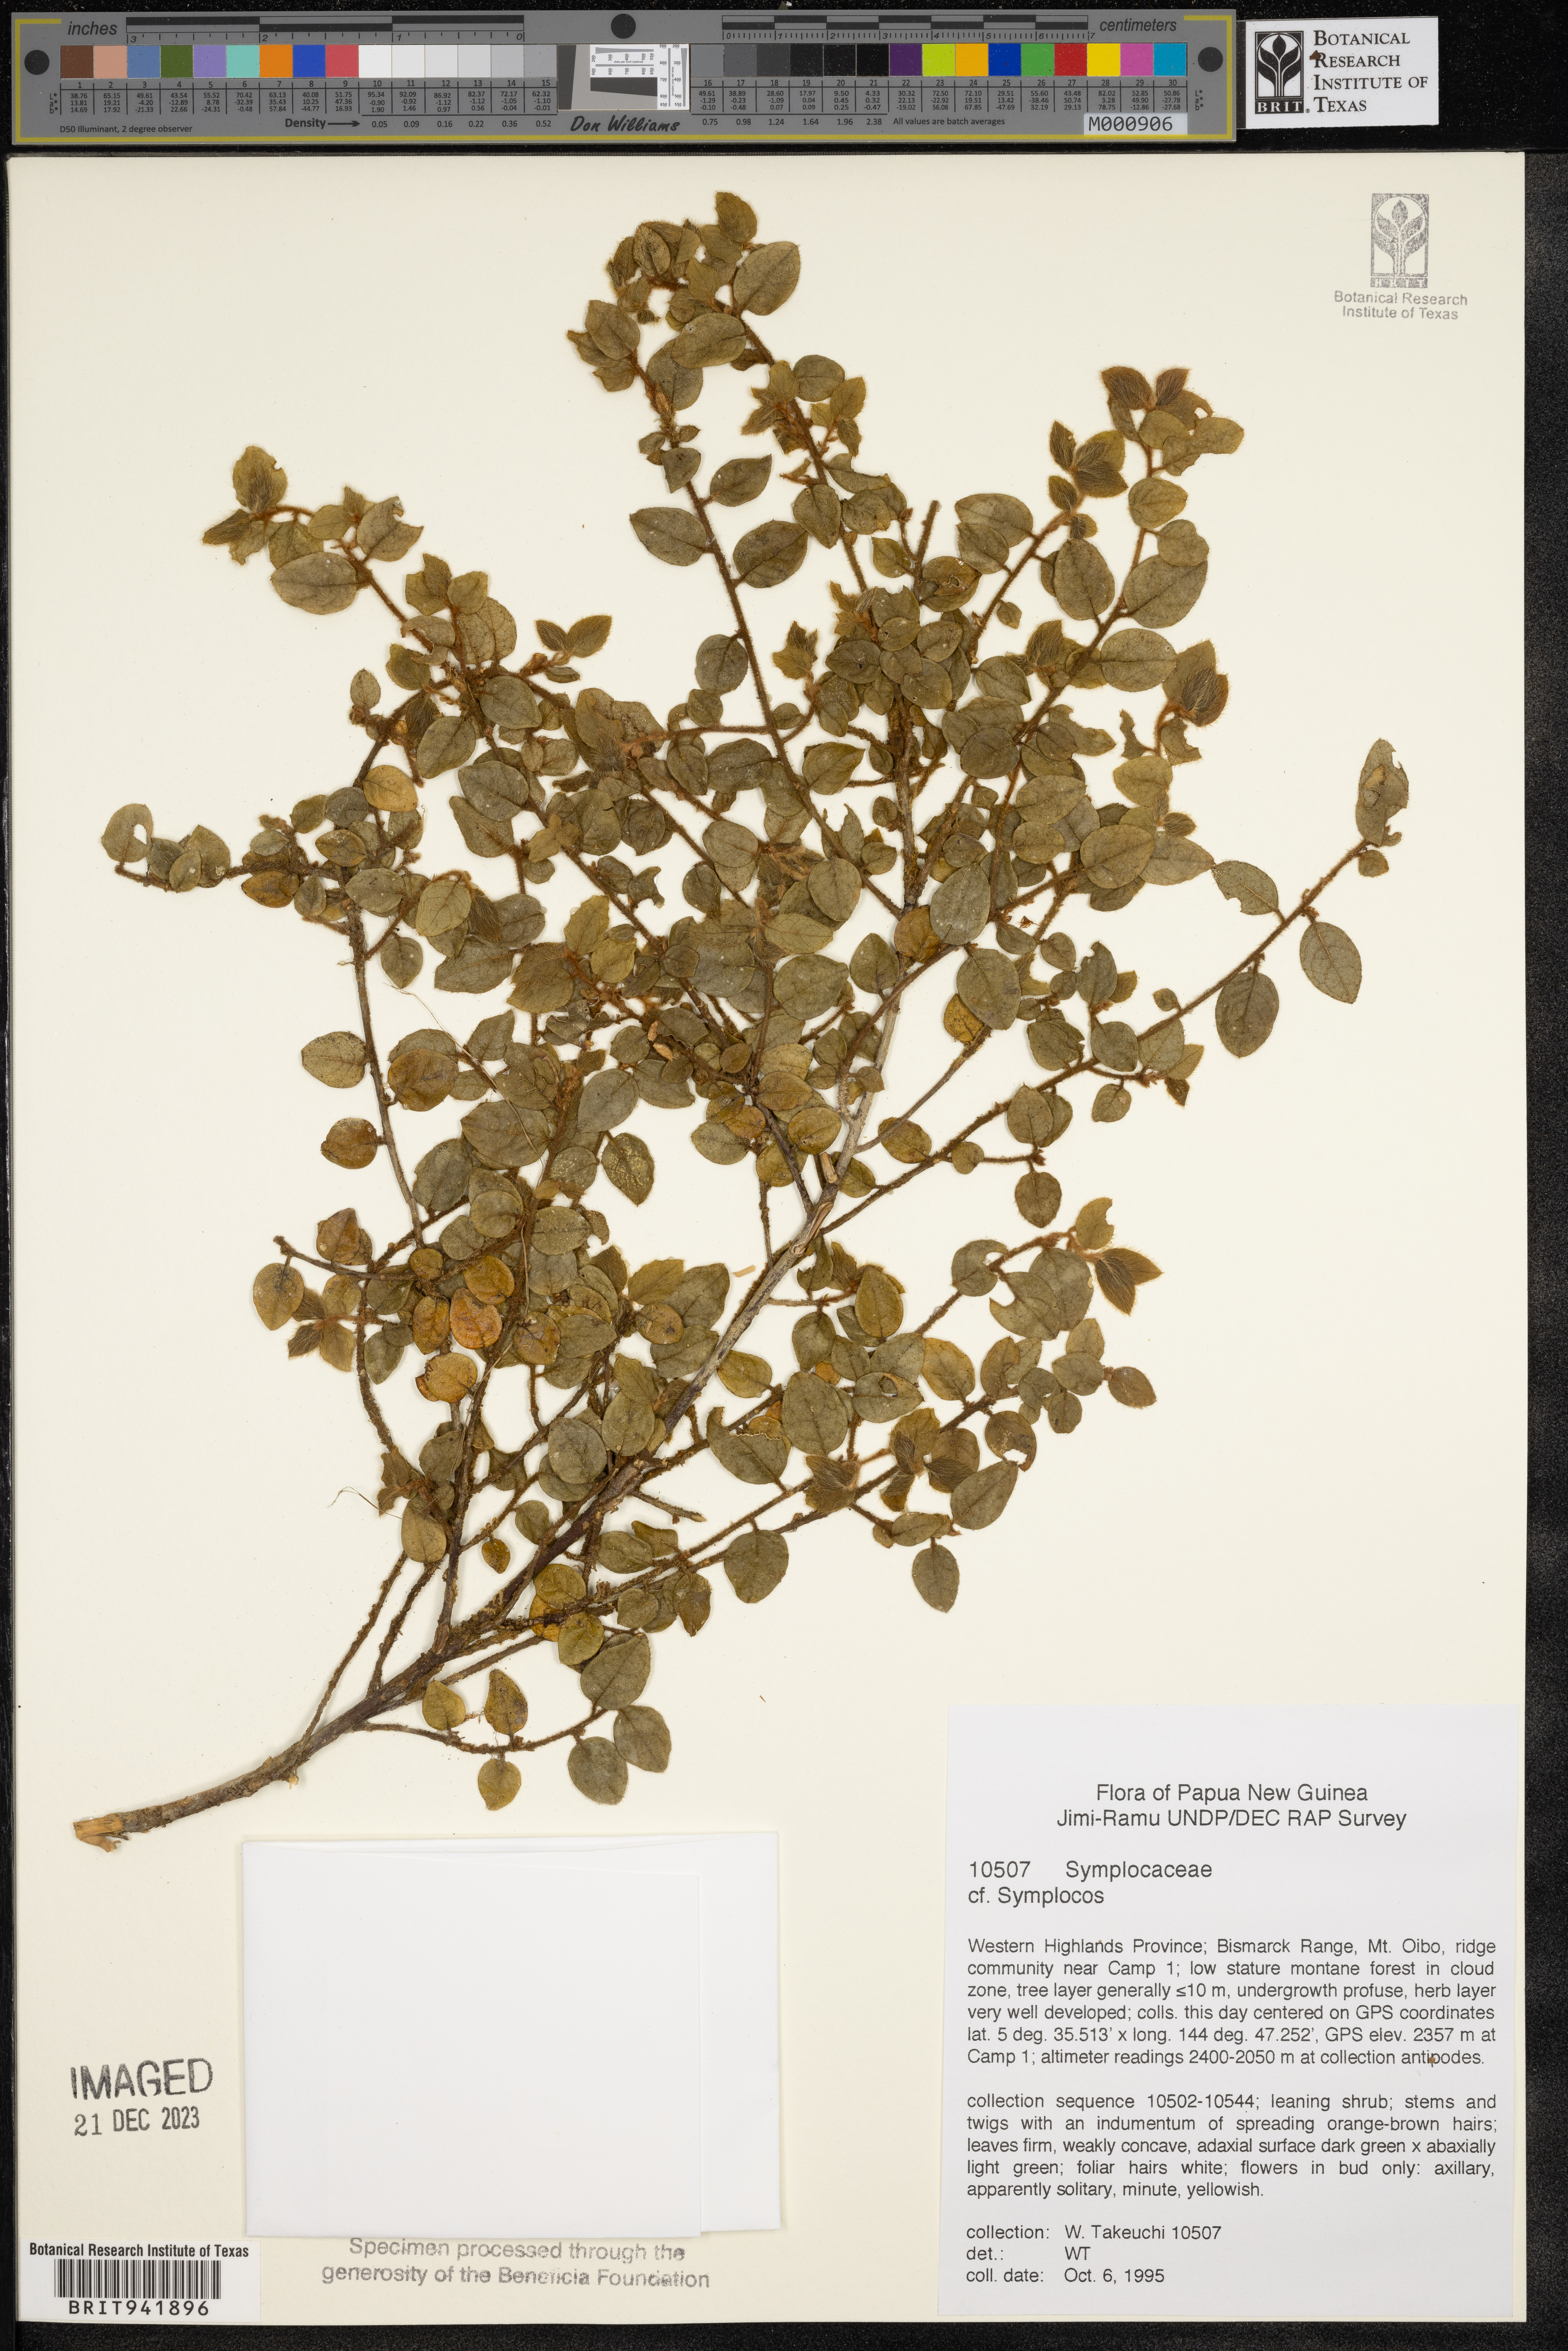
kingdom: Plantae
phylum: Tracheophyta
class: Magnoliopsida
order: Ericales
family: Symplocaceae
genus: Symplocos
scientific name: Symplocos
